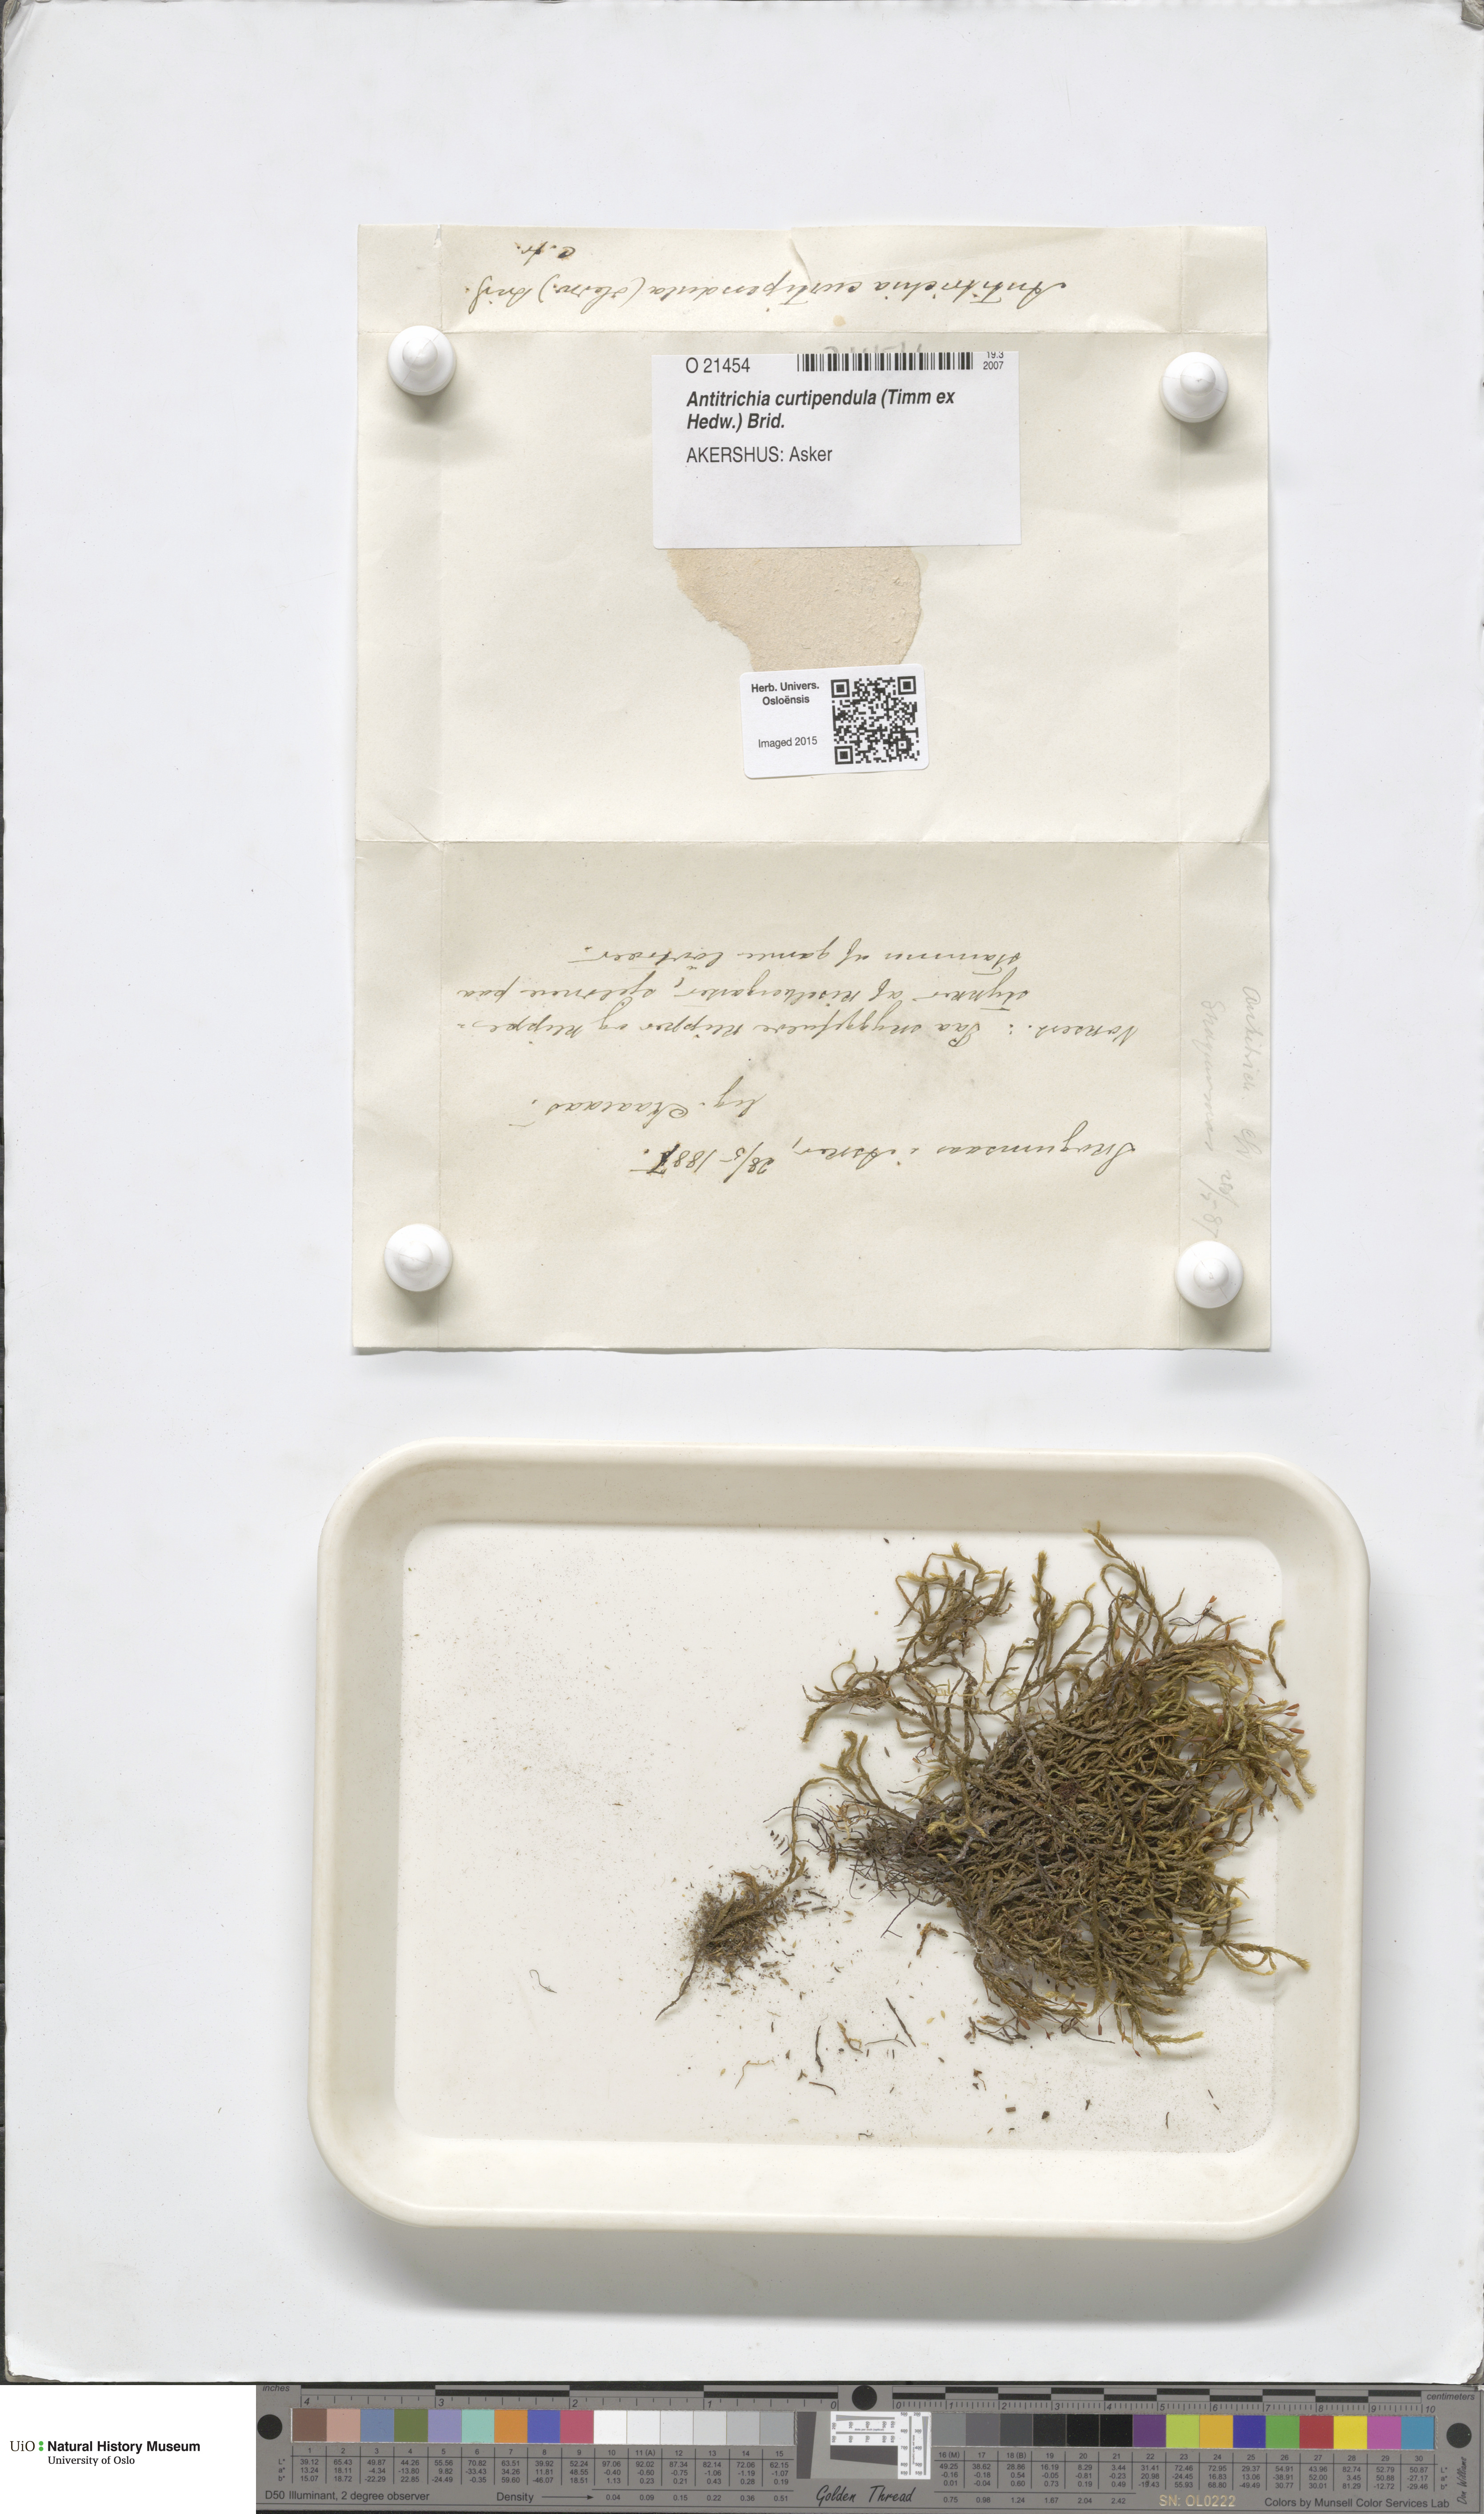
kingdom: Plantae
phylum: Bryophyta
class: Bryopsida
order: Hypnales
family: Antitrichiaceae
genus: Antitrichia
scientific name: Antitrichia curtipendula
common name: Pendulous wing-moss
